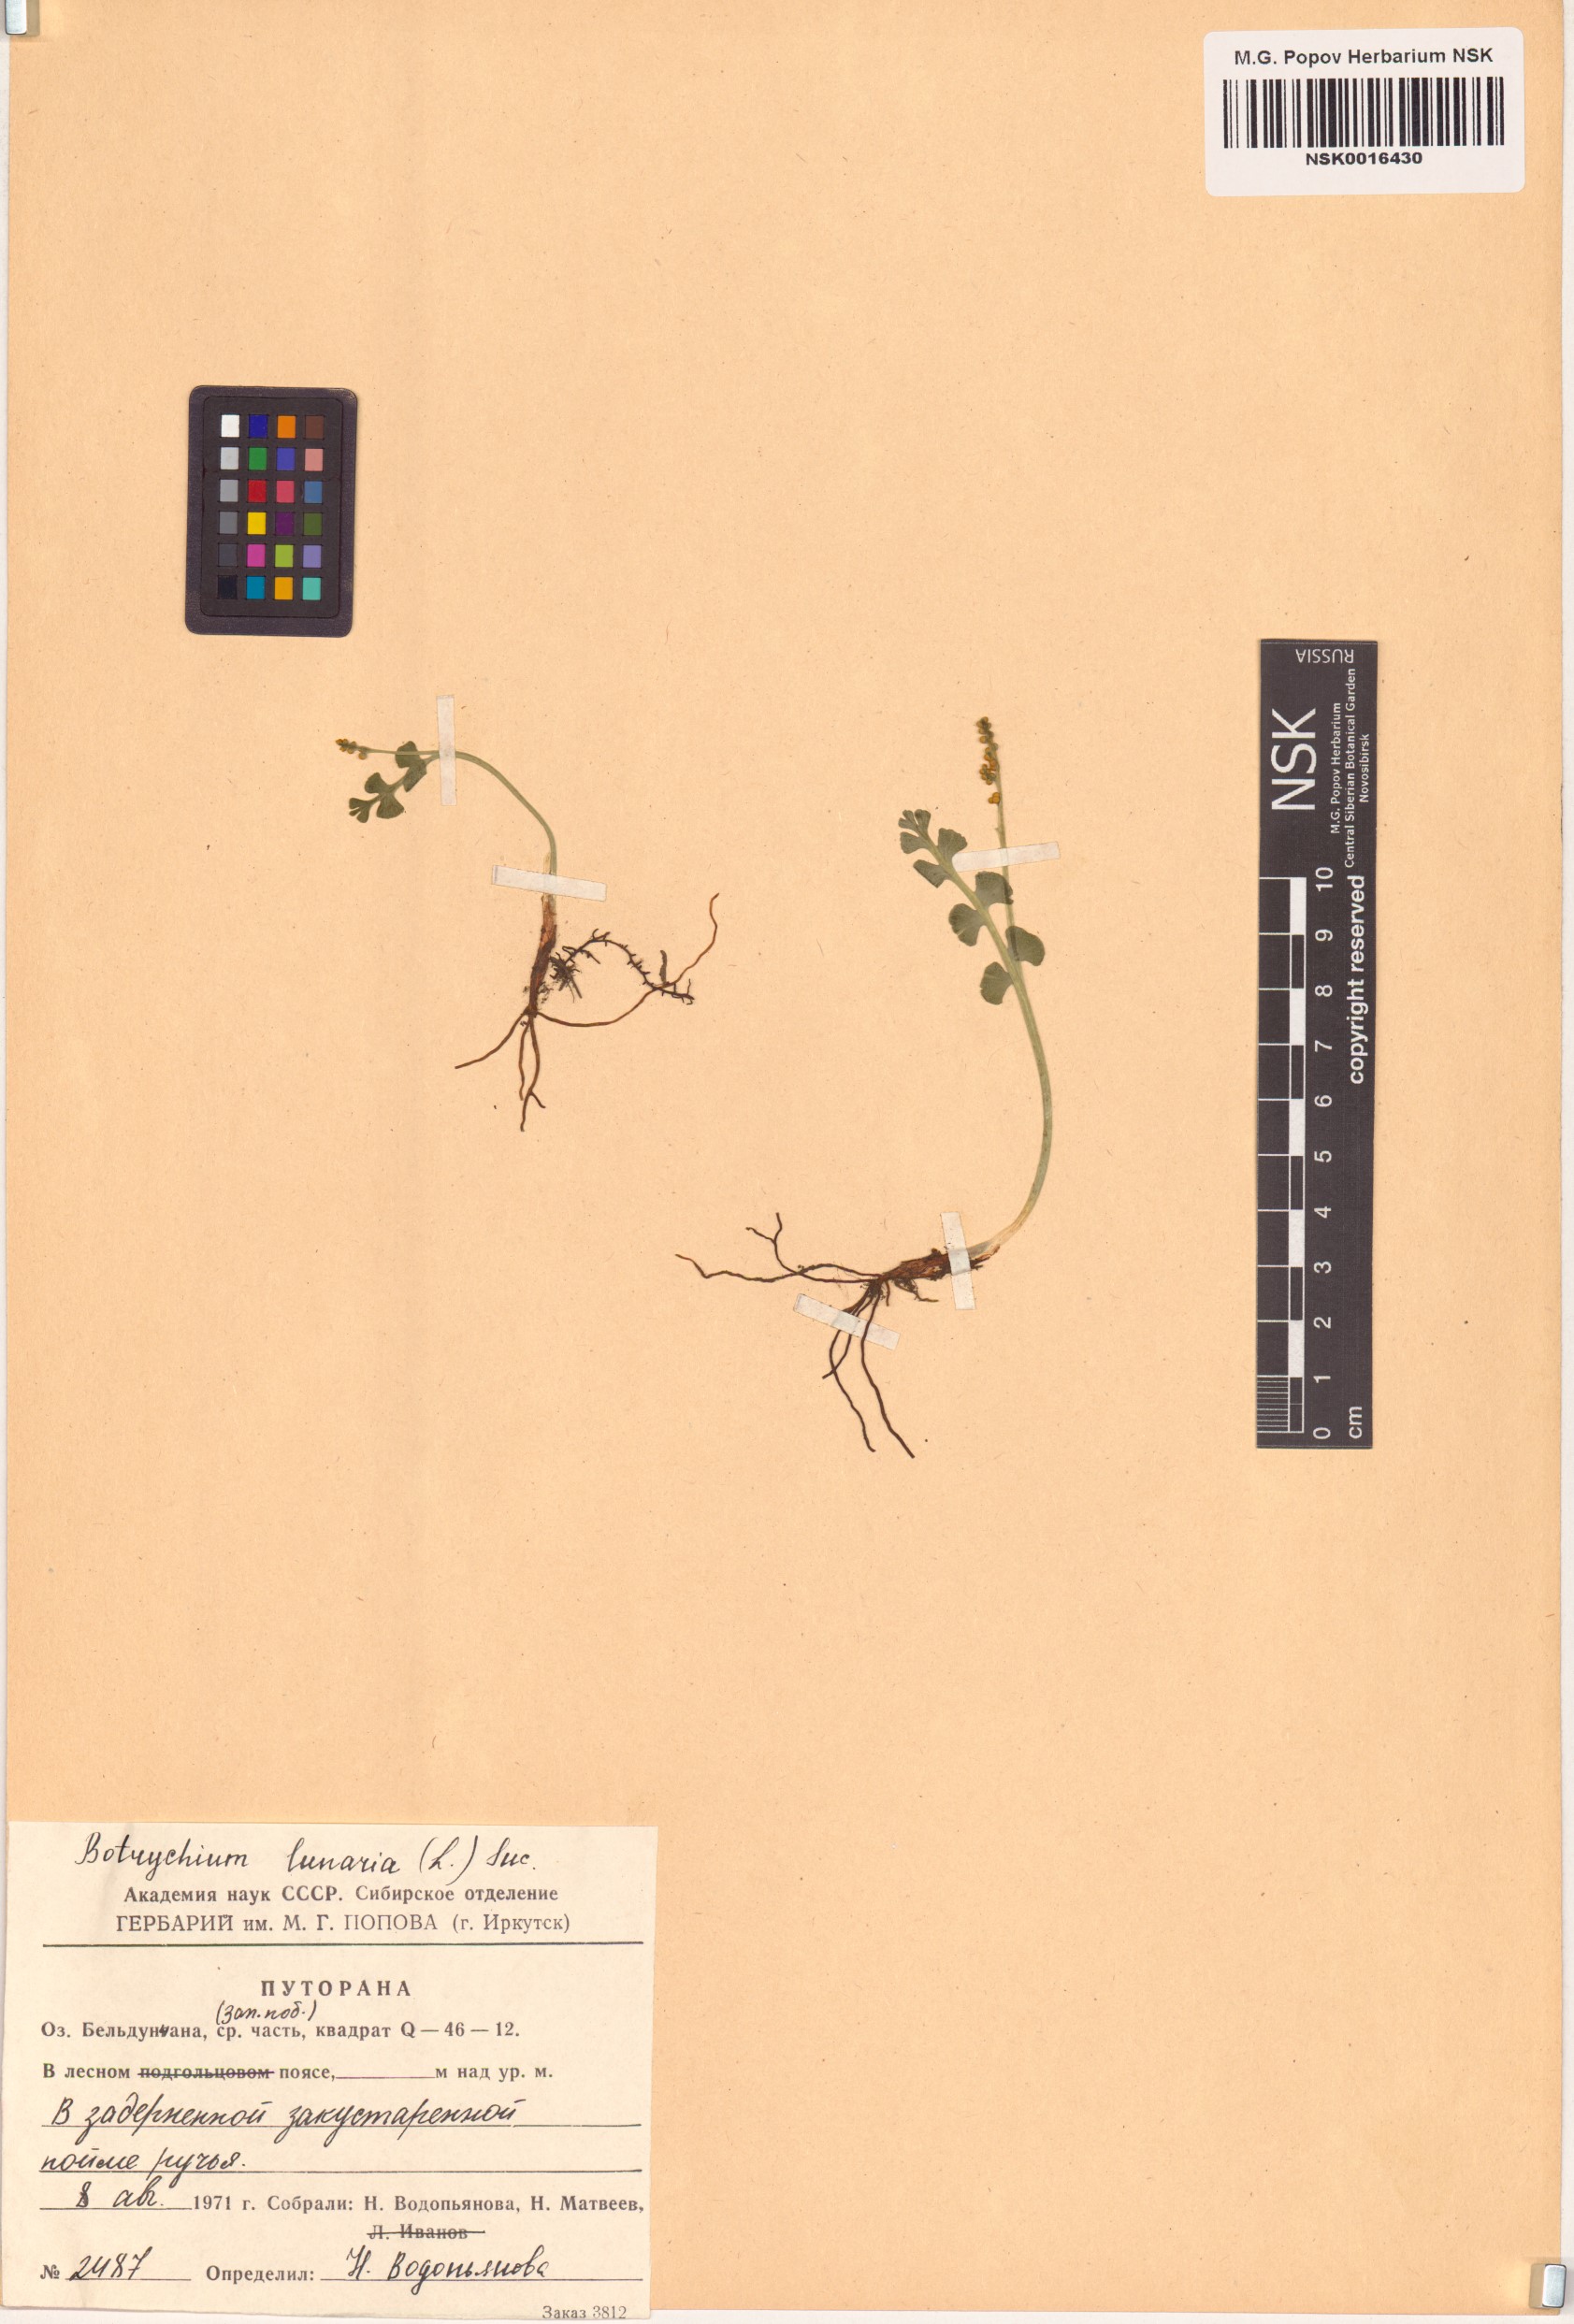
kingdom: Plantae
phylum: Tracheophyta
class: Polypodiopsida
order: Ophioglossales
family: Ophioglossaceae
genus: Botrychium
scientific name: Botrychium lunaria
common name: Moonwort
